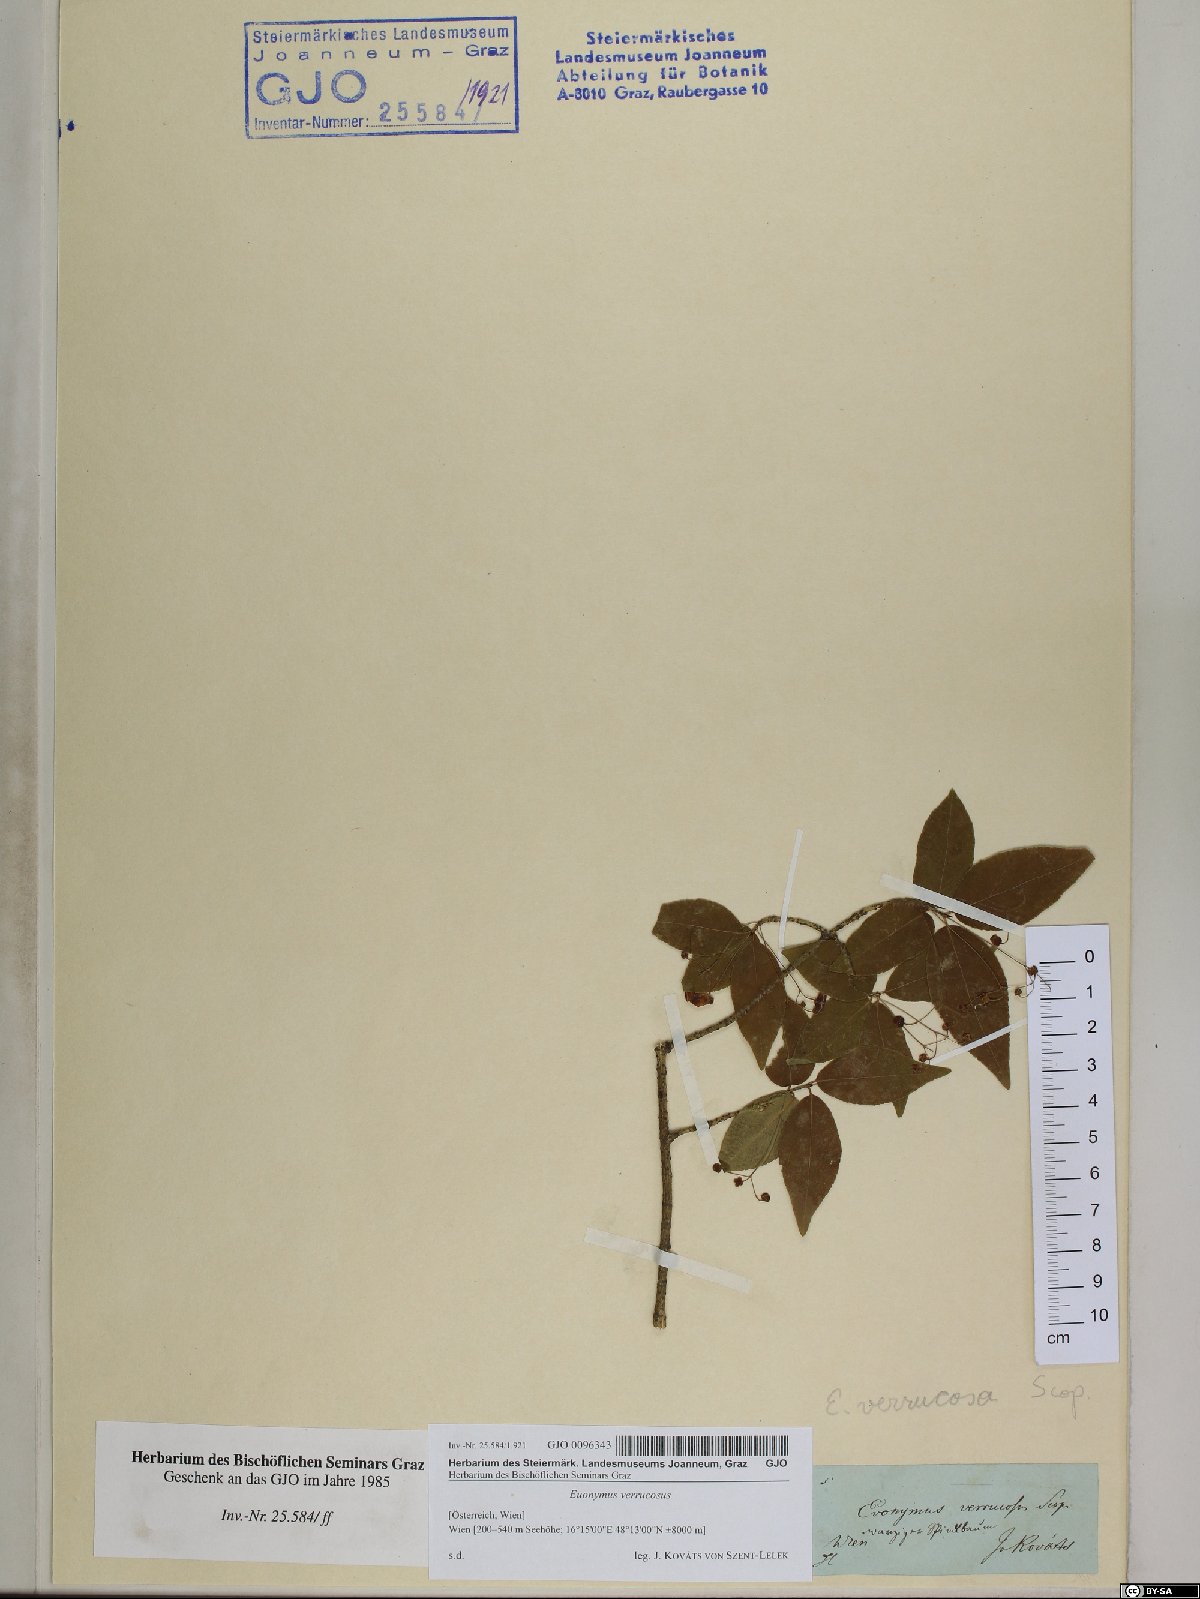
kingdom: Plantae
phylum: Tracheophyta
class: Magnoliopsida
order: Celastrales
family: Celastraceae
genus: Euonymus
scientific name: Euonymus verrucosus
